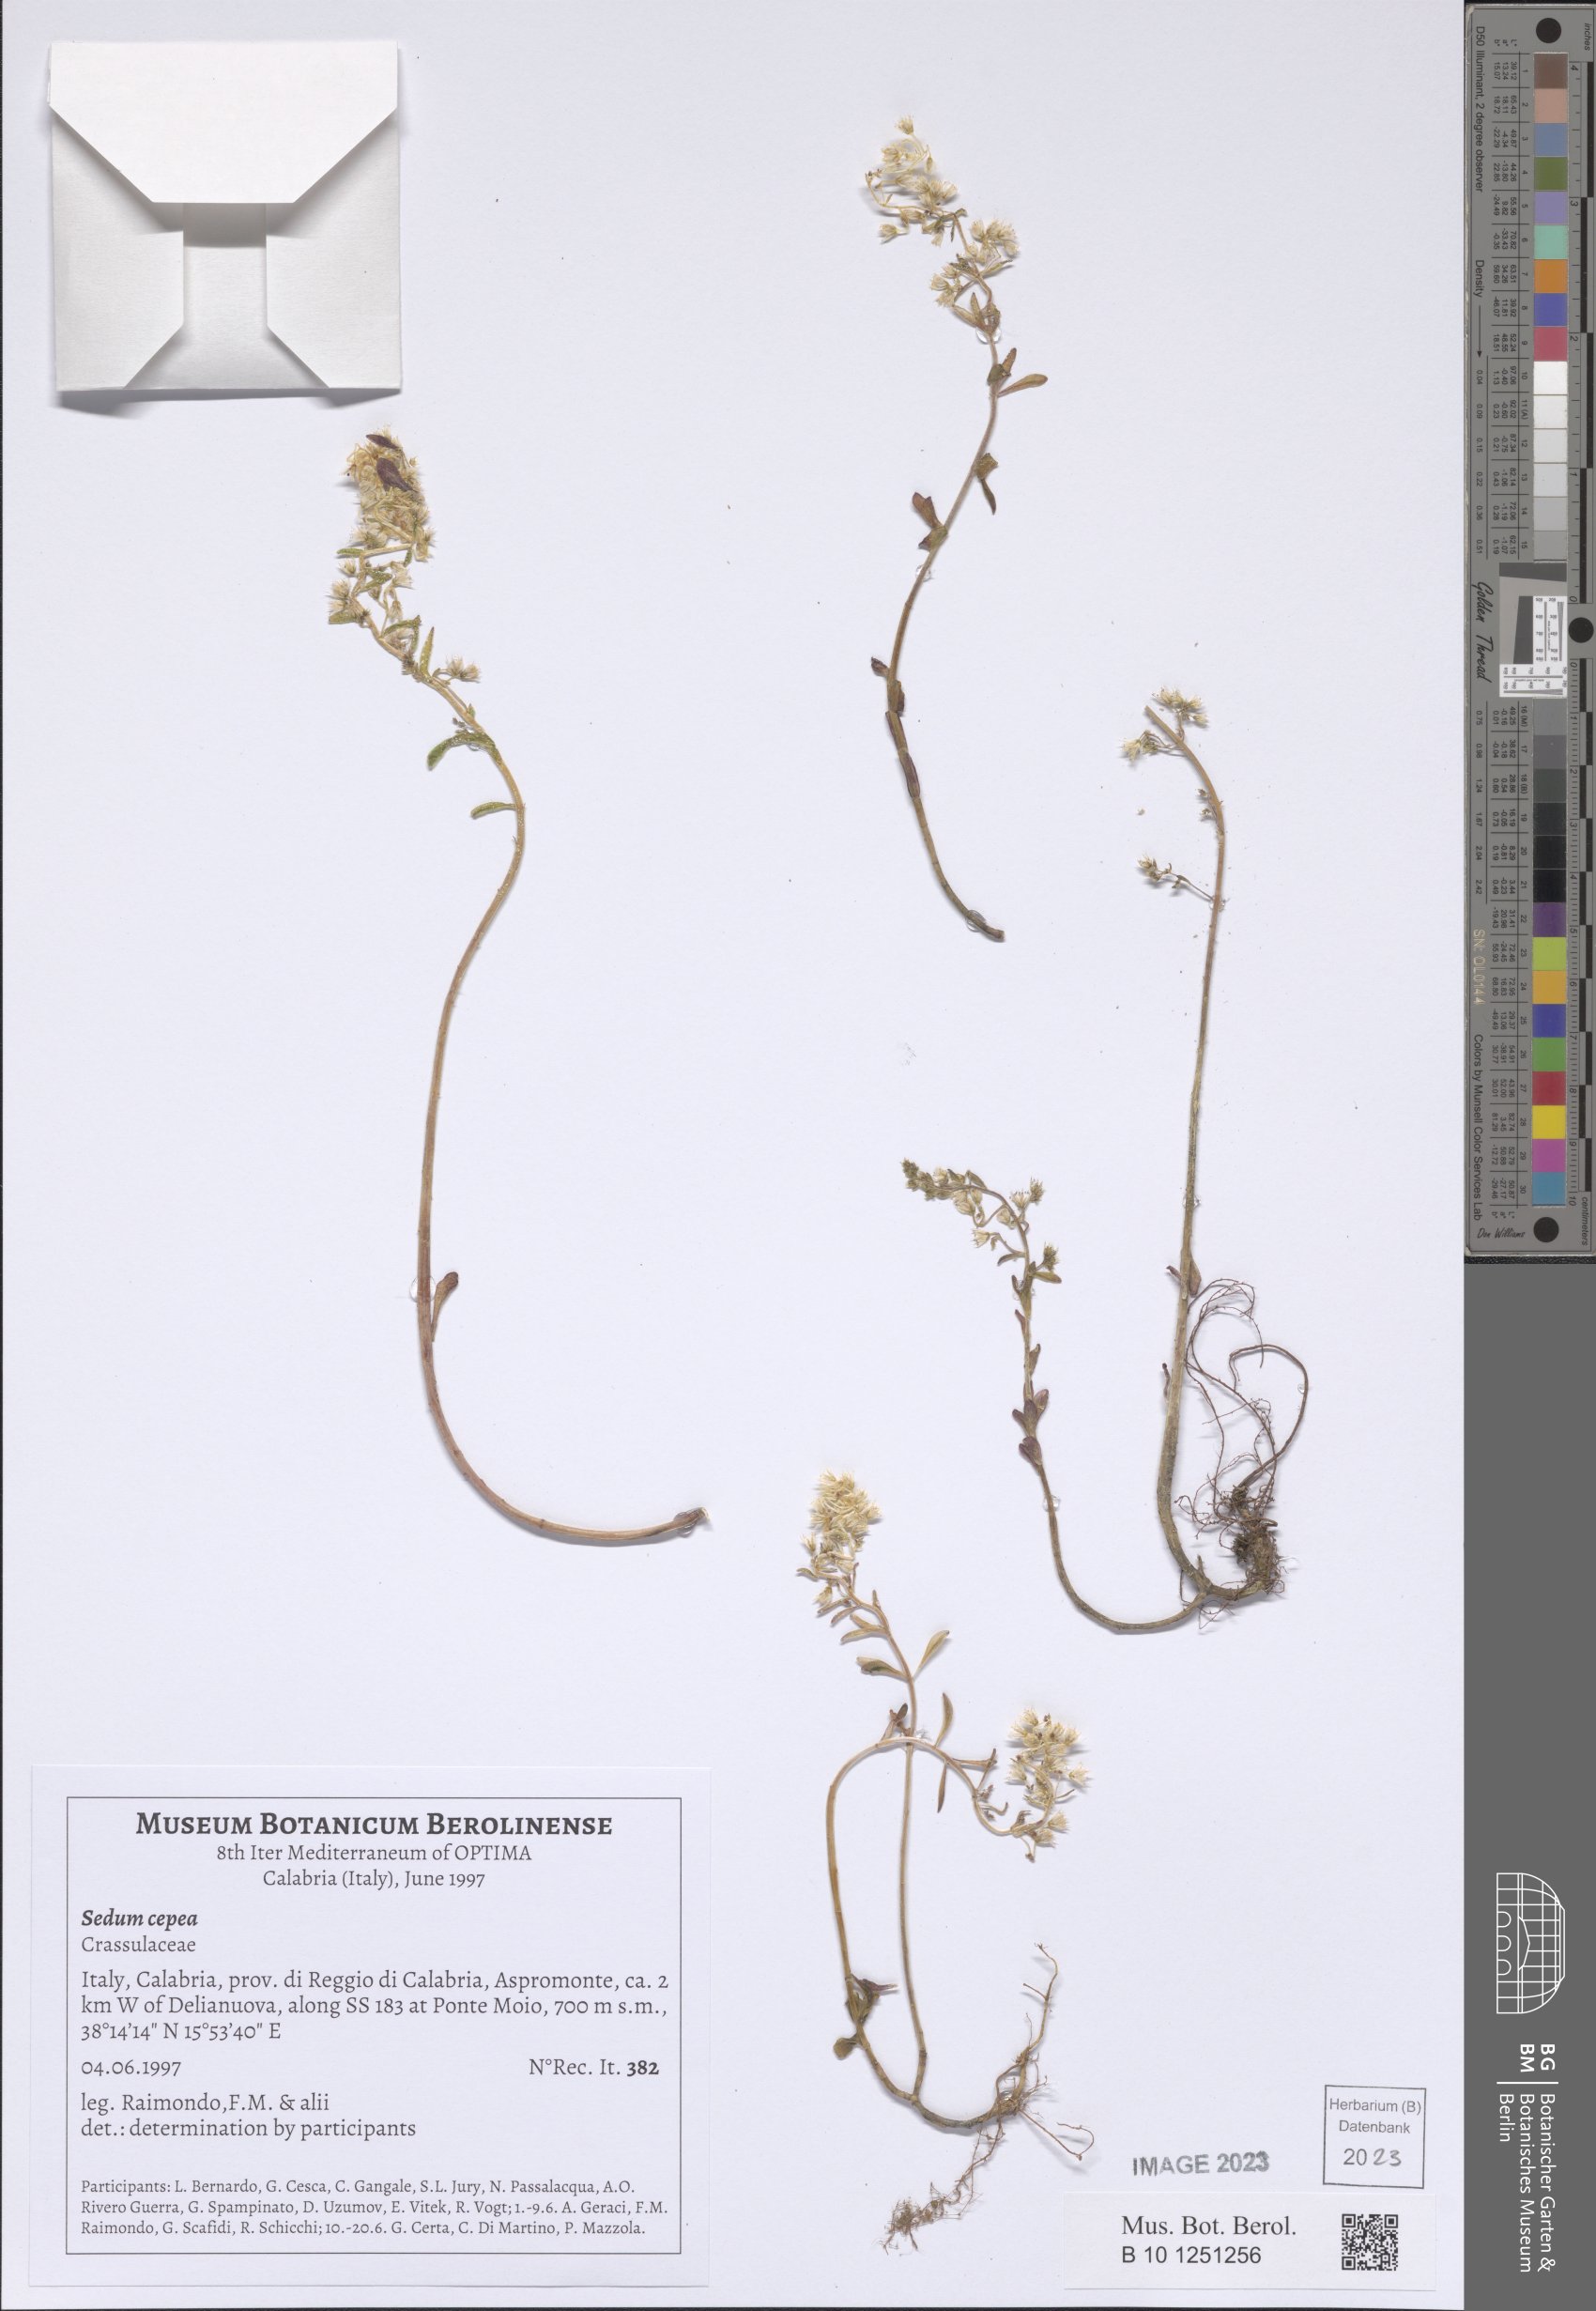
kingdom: Plantae
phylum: Tracheophyta
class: Magnoliopsida
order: Saxifragales
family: Crassulaceae
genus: Sedum
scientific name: Sedum cepaea
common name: Pink stonecrop
